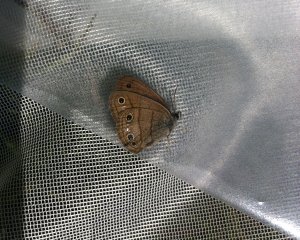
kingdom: Animalia
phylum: Arthropoda
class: Insecta
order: Lepidoptera
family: Nymphalidae
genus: Euptychia
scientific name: Euptychia cymela
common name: Little Wood Satyr
